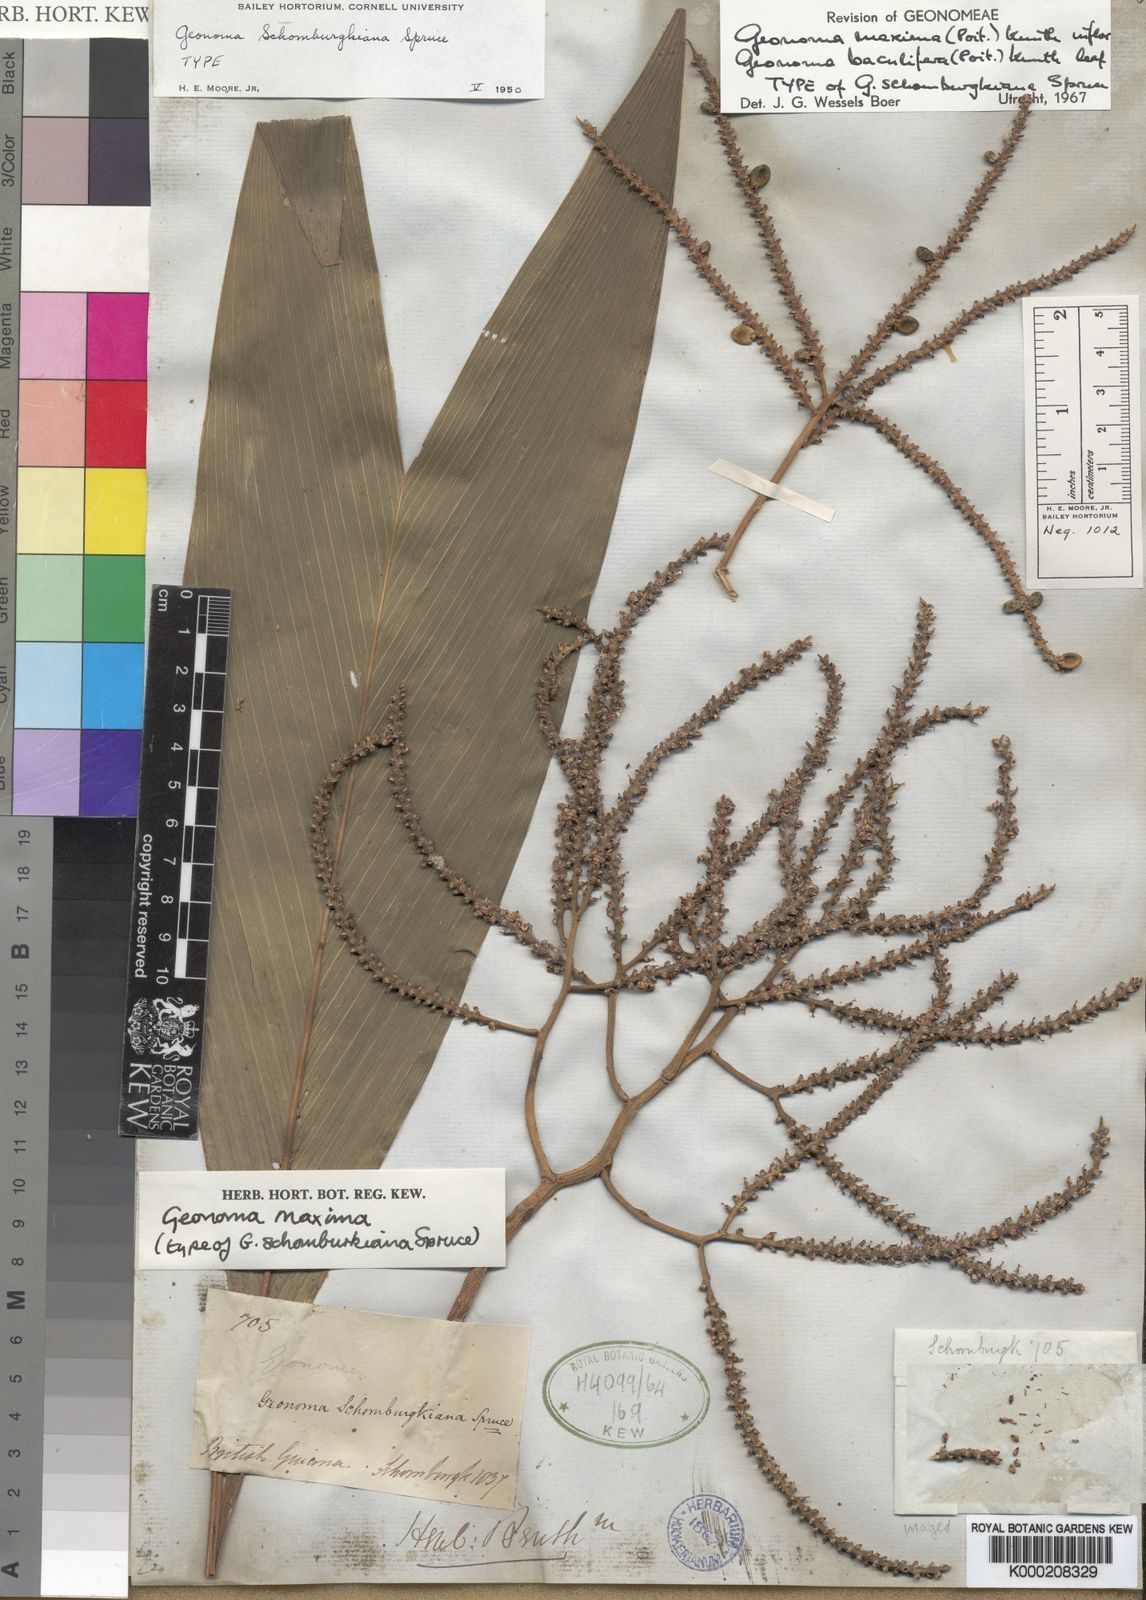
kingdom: Plantae
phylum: Tracheophyta
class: Liliopsida
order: Arecales
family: Arecaceae
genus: Geonoma
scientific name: Geonoma maxima
